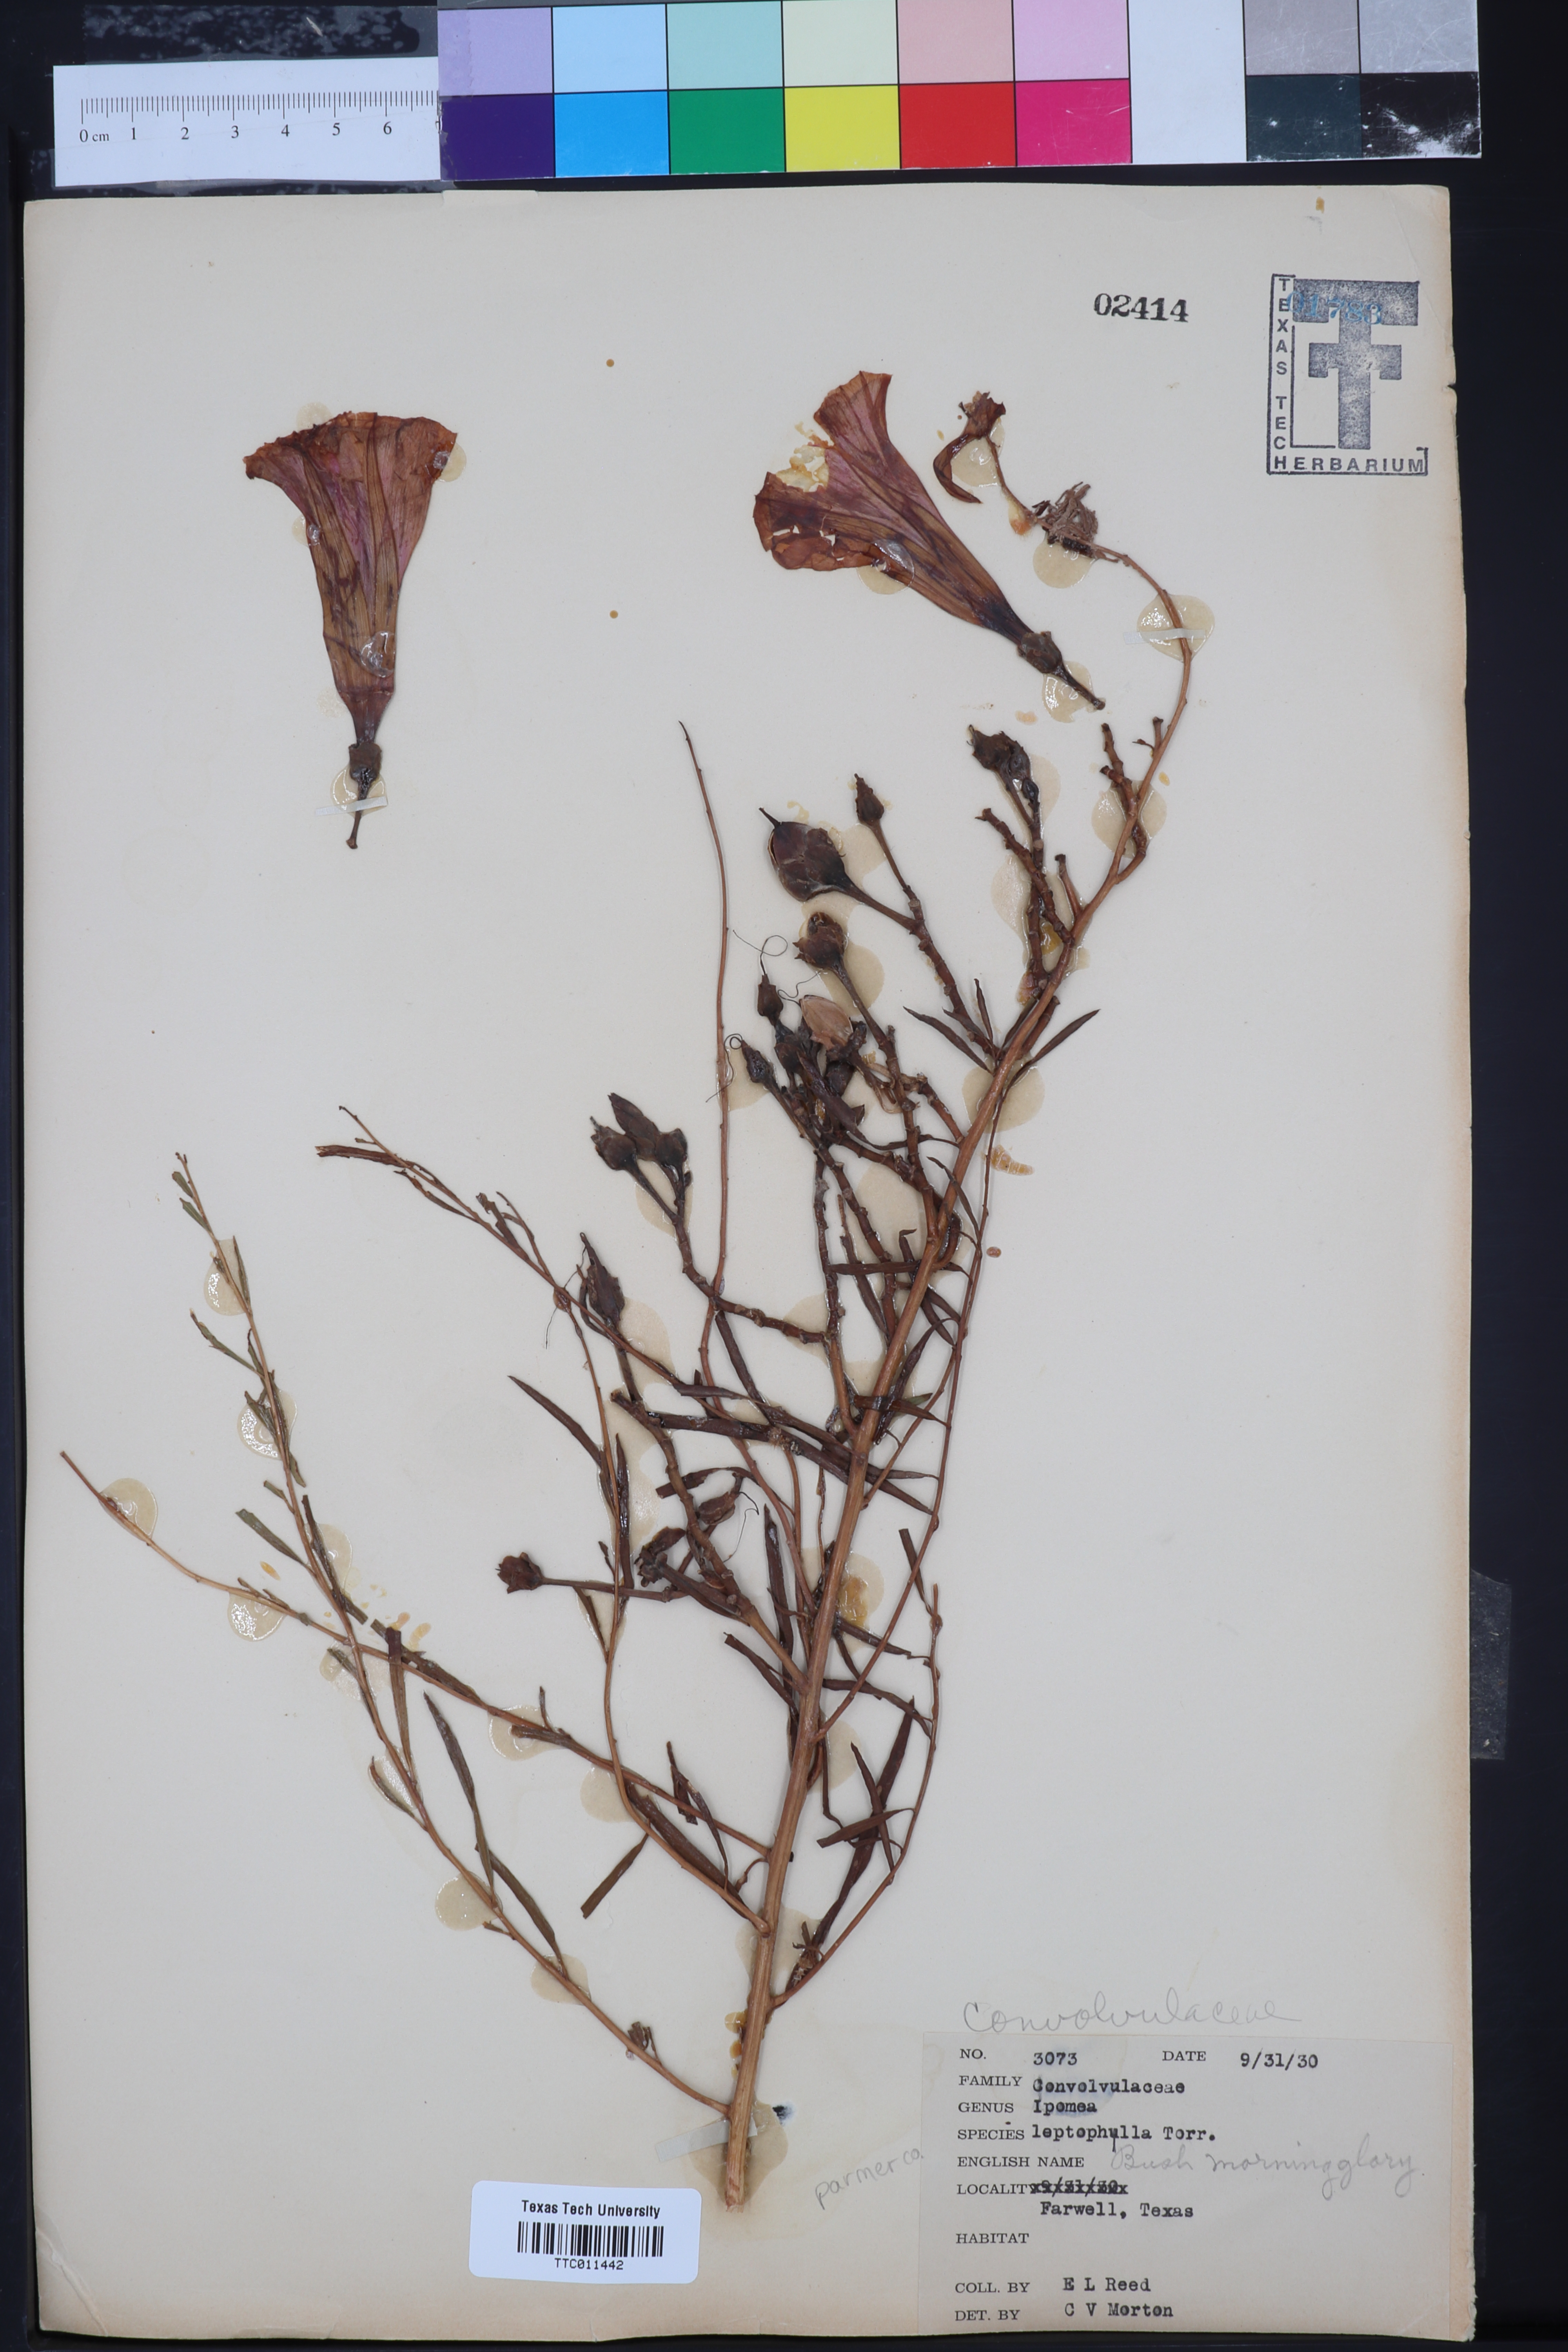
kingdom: Plantae
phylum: Tracheophyta
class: Magnoliopsida
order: Solanales
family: Convolvulaceae
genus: Ipomoea
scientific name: Ipomoea leptophylla
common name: Bush moonflower
